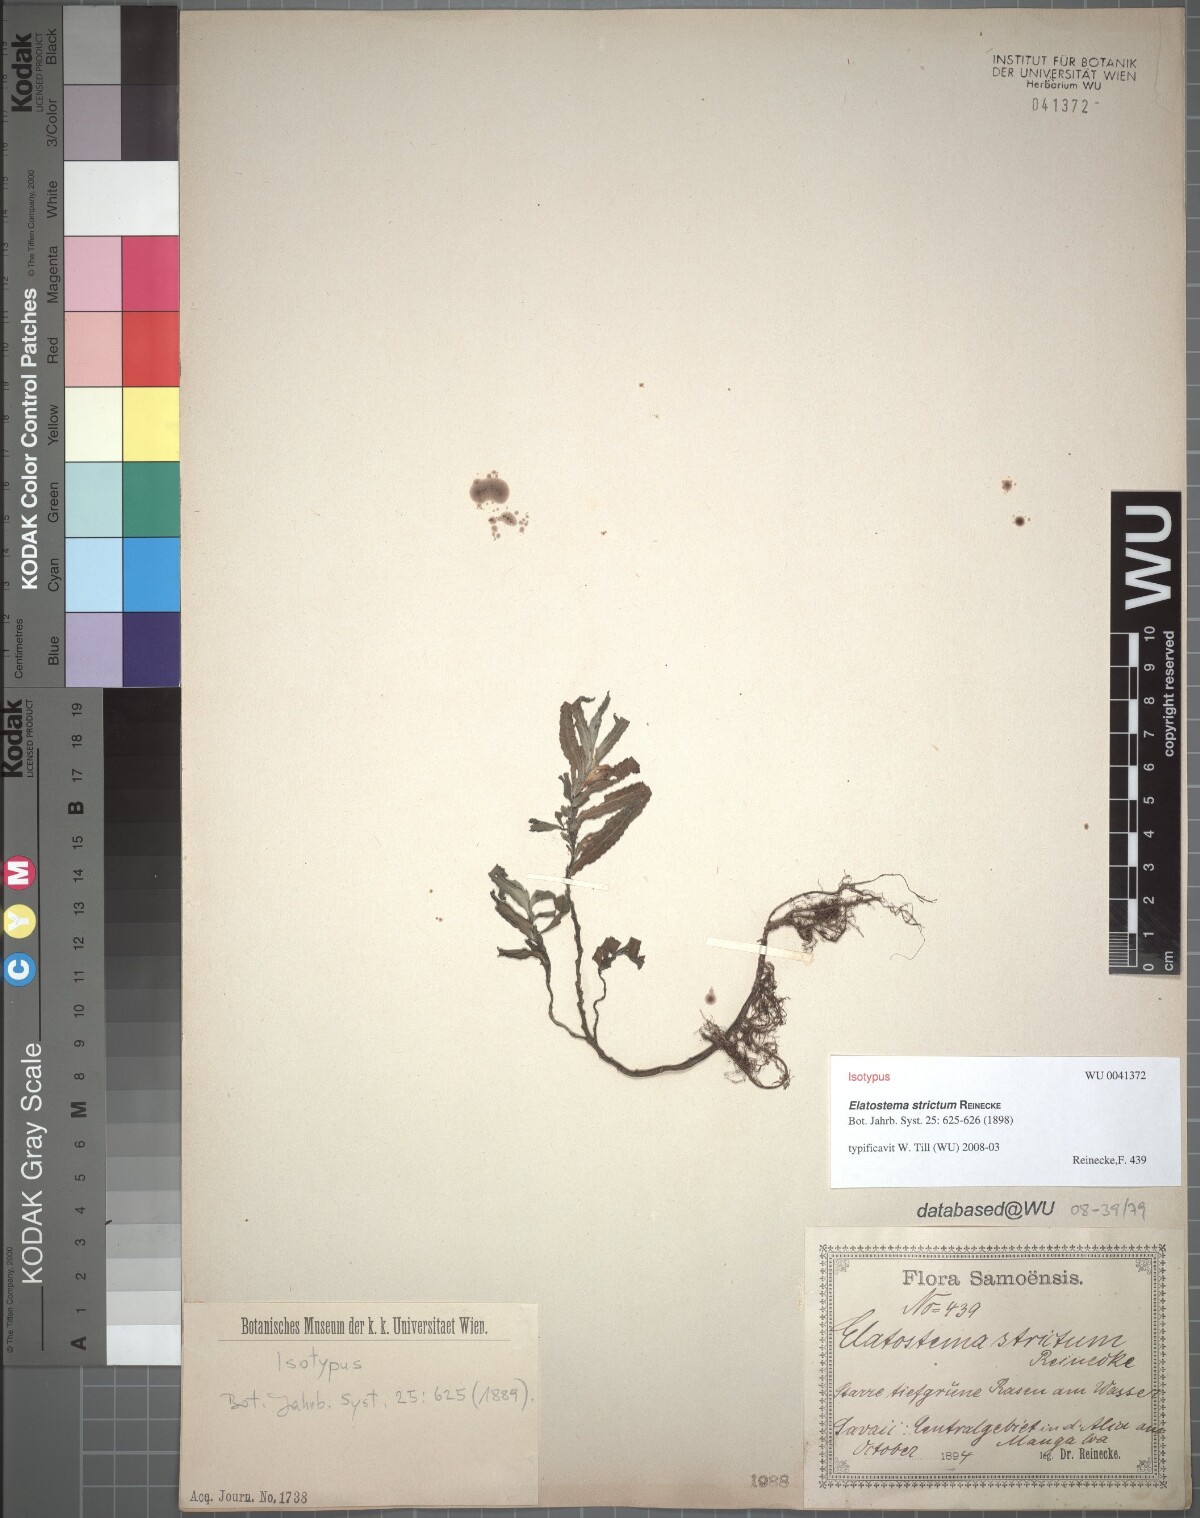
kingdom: Plantae
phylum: Tracheophyta
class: Magnoliopsida
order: Rosales
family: Urticaceae
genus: Elatostema
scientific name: Elatostema strictum
